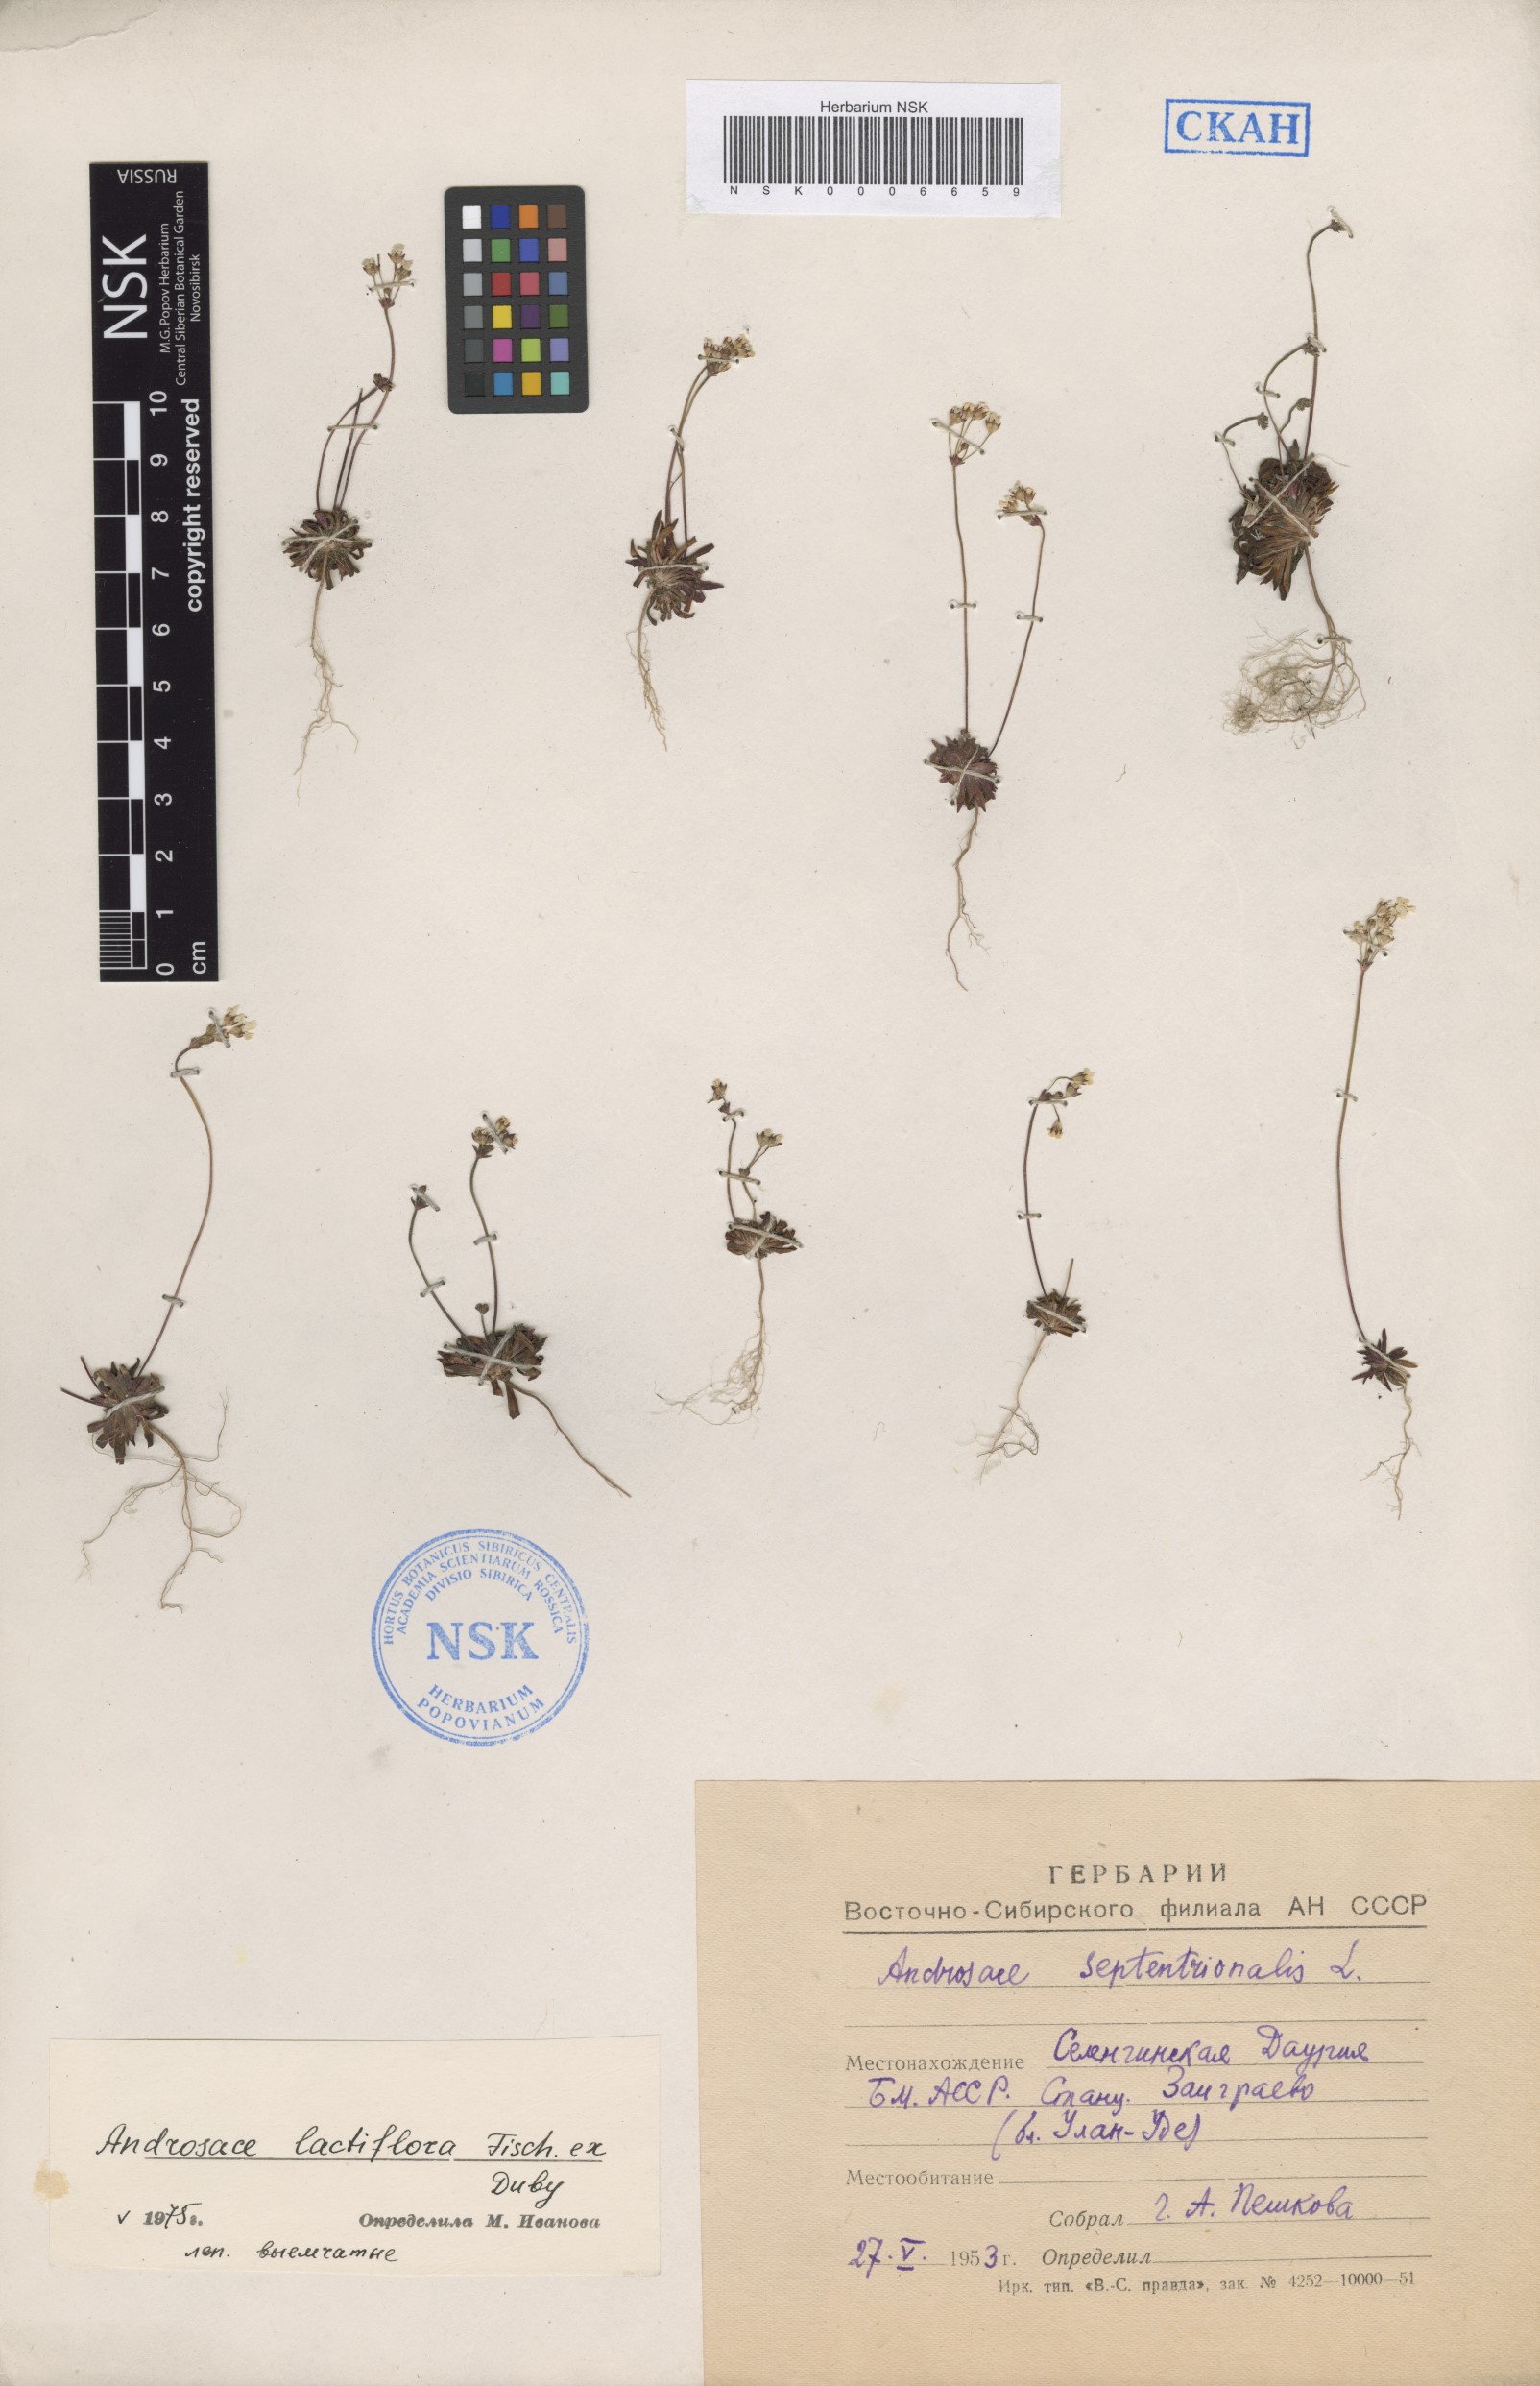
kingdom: Plantae
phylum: Tracheophyta
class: Magnoliopsida
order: Ericales
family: Primulaceae
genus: Androsace
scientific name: Androsace lactiflora
